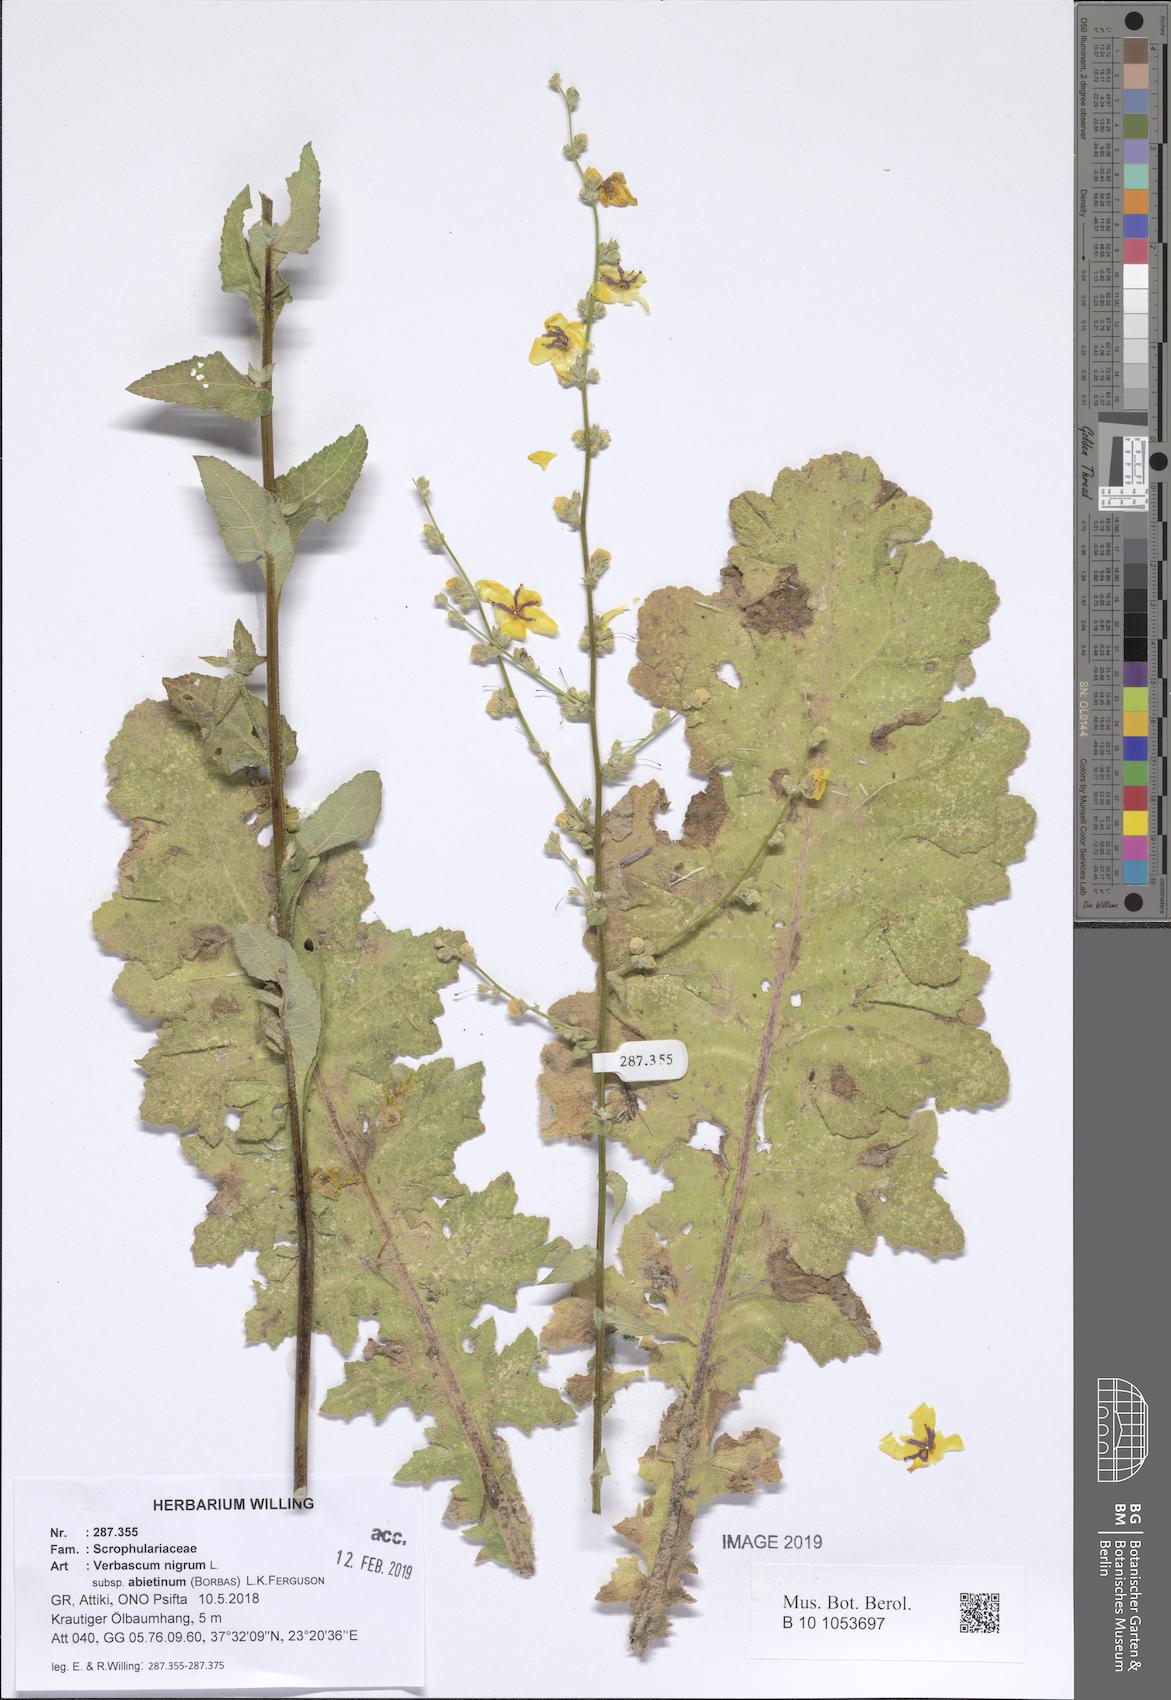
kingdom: Plantae
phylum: Tracheophyta
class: Magnoliopsida
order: Lamiales
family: Scrophulariaceae
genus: Verbascum
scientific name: Verbascum nigrum
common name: Dark mullein
